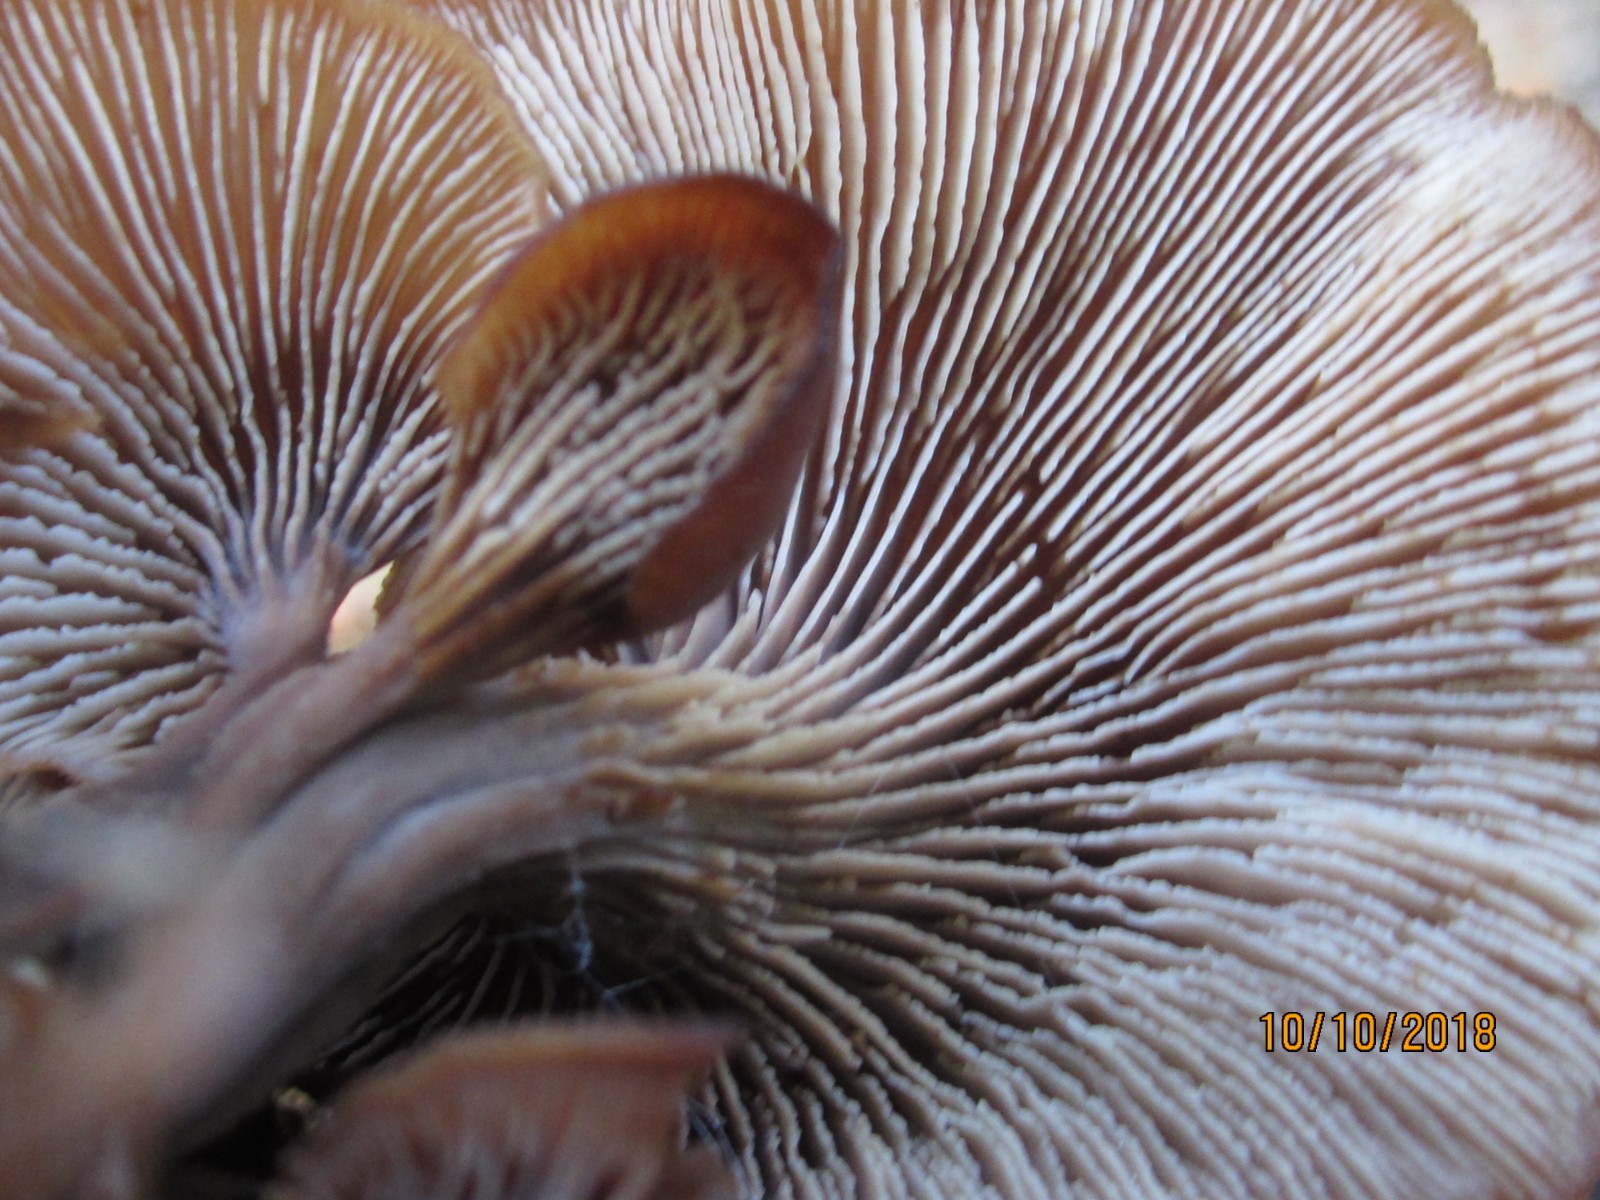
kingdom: Fungi
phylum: Basidiomycota
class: Agaricomycetes
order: Russulales
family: Auriscalpiaceae
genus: Lentinellus
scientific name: Lentinellus cochleatus
